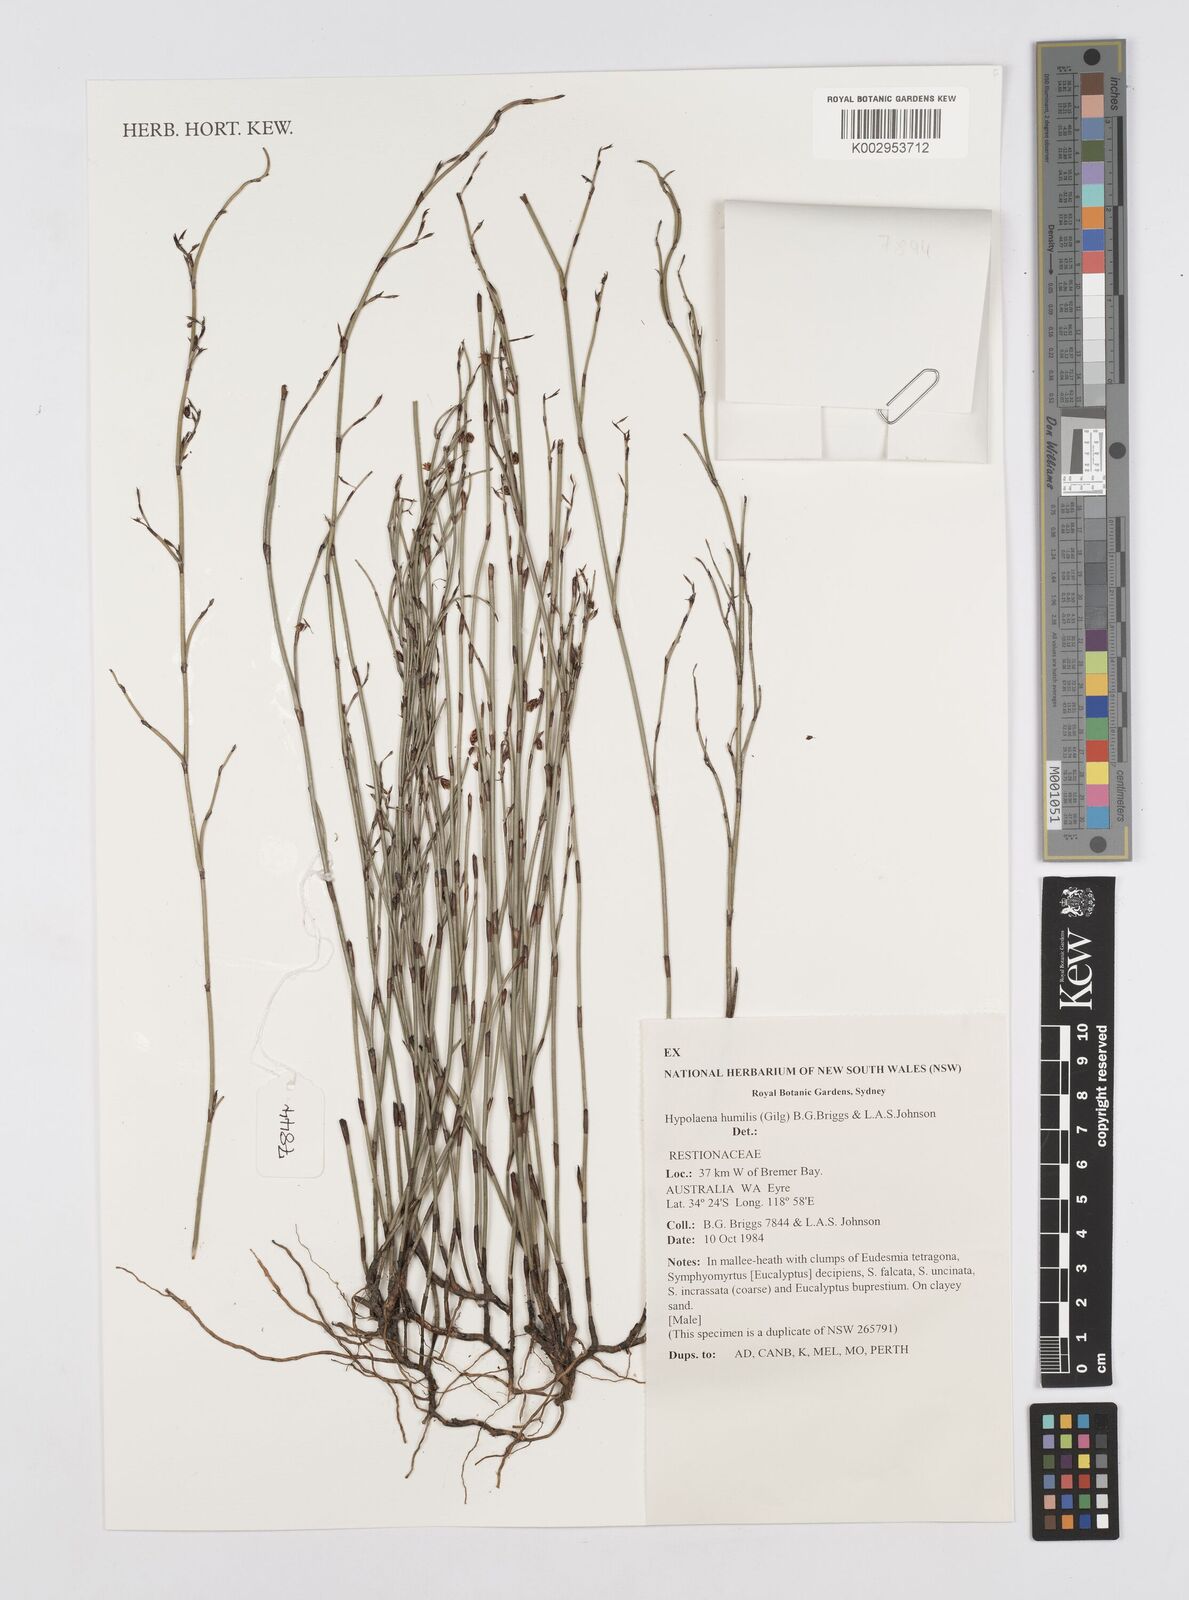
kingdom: Plantae
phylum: Tracheophyta
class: Liliopsida
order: Poales
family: Restionaceae
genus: Hypolaena
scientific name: Hypolaena humilis
